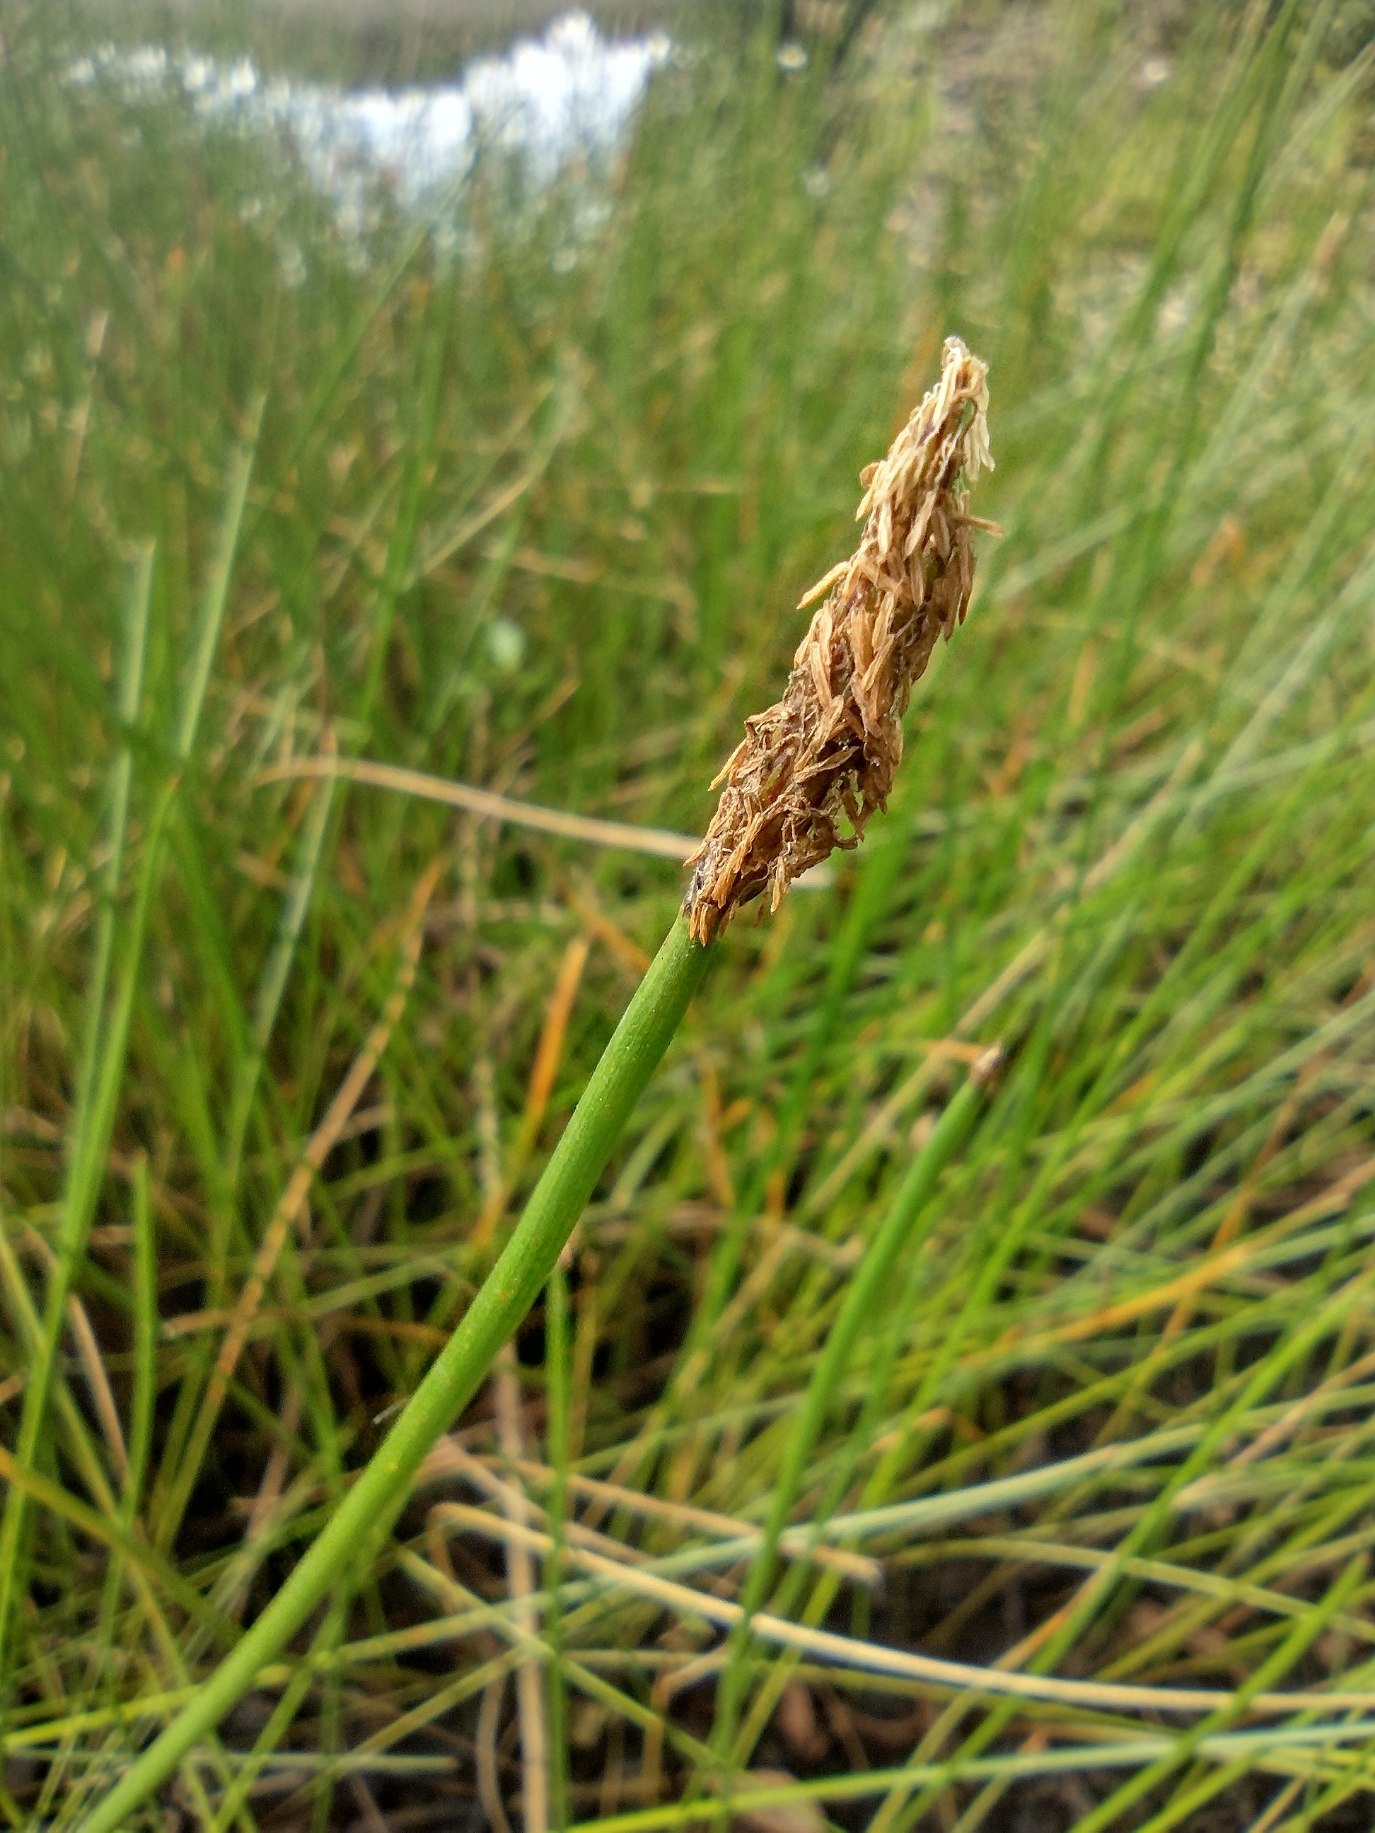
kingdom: Plantae
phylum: Tracheophyta
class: Liliopsida
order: Poales
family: Cyperaceae
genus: Eleocharis
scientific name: Eleocharis palustris
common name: Almindelig sumpstrå
